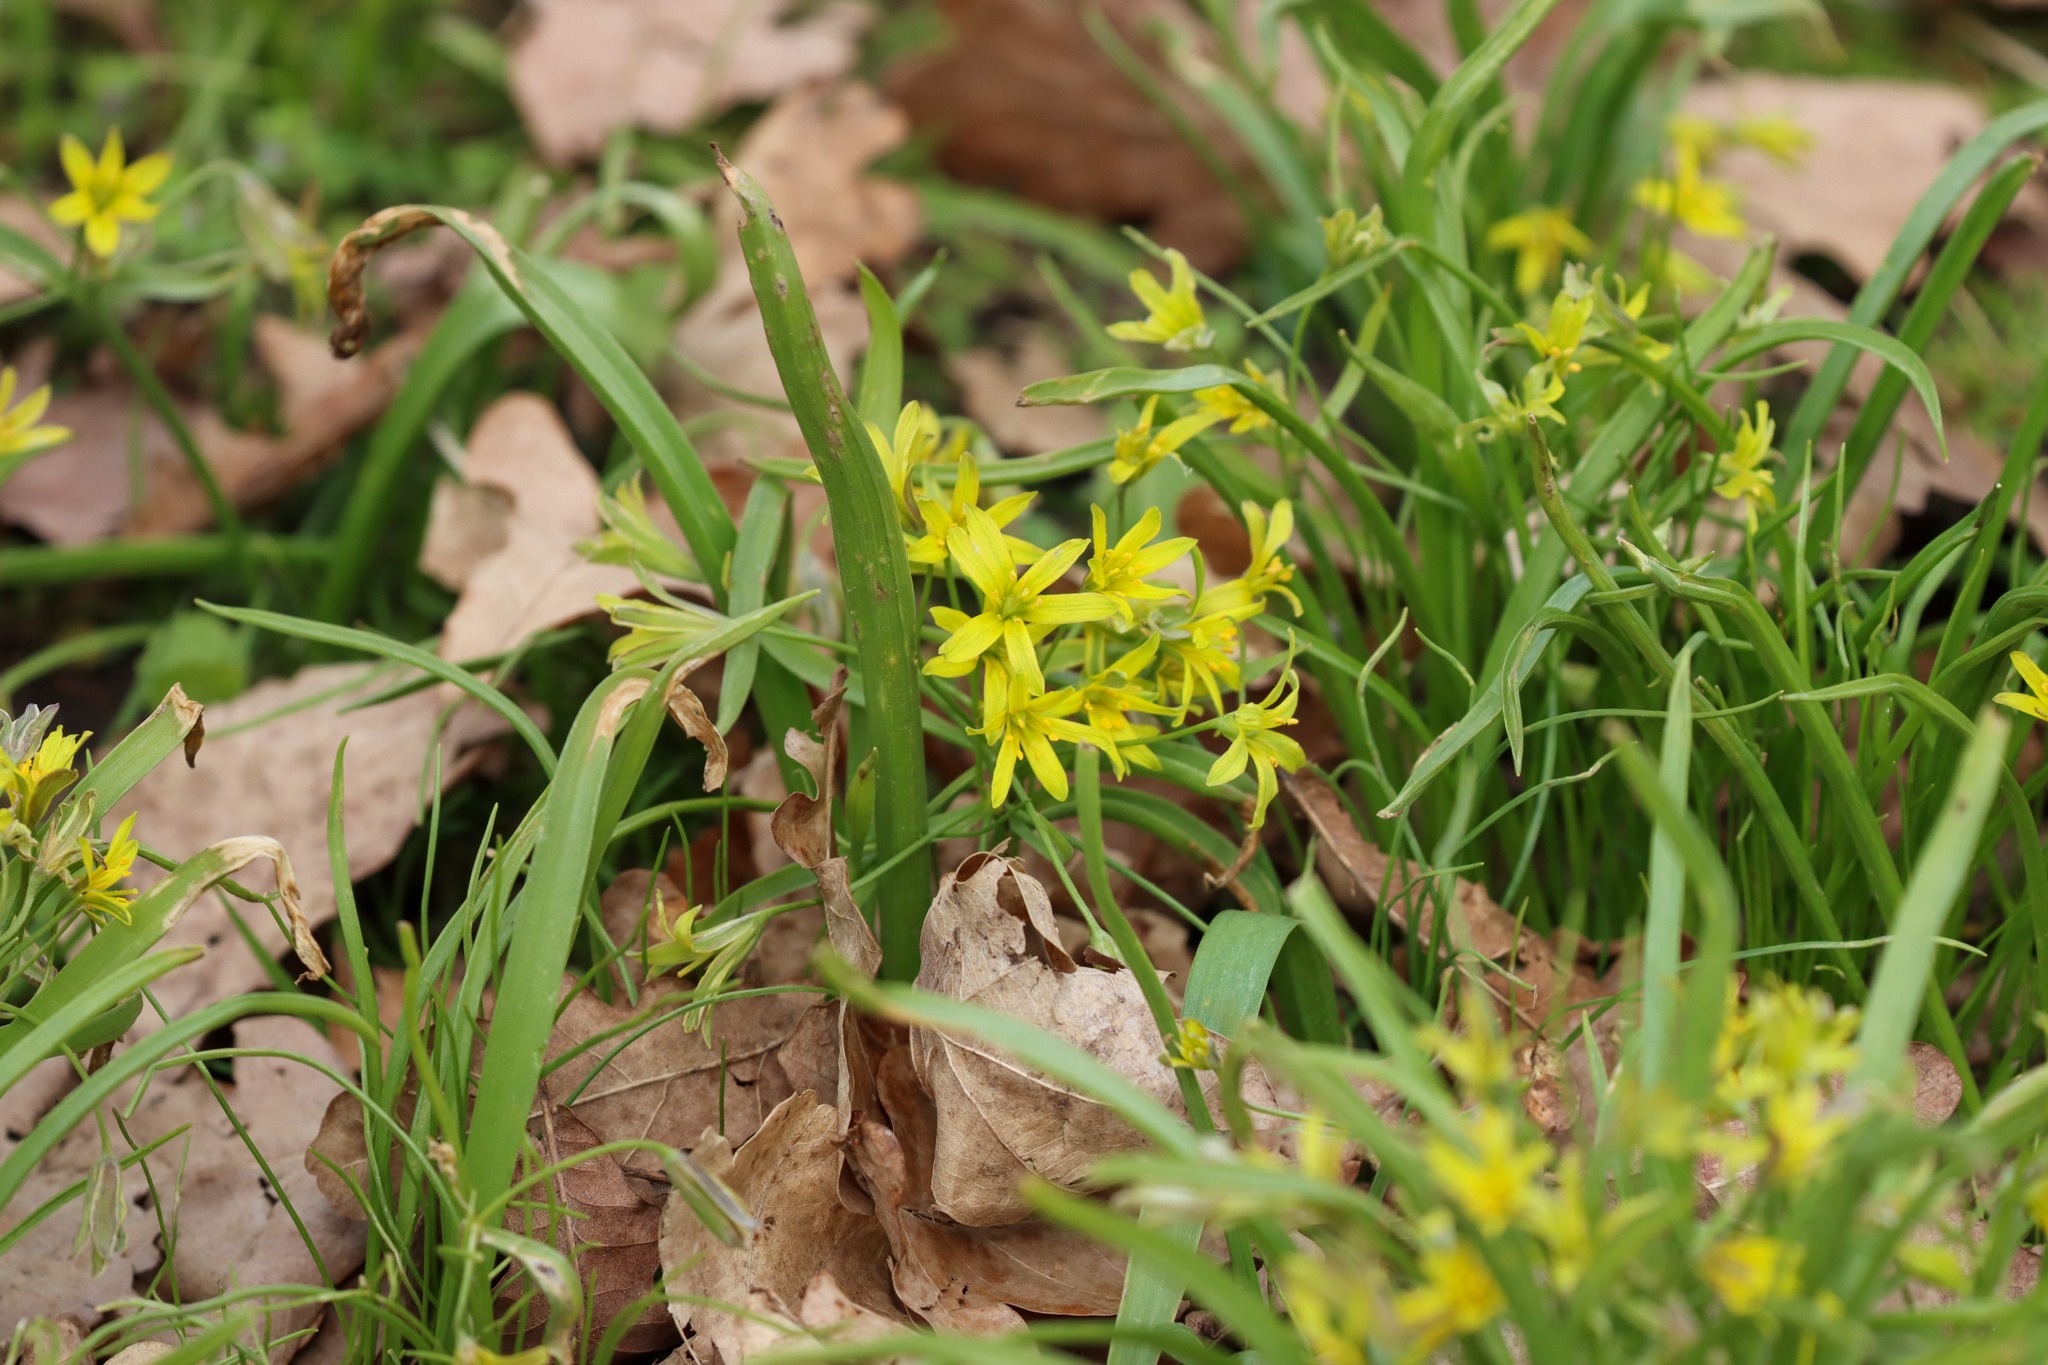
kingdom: Plantae
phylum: Tracheophyta
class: Liliopsida
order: Liliales
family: Liliaceae
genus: Gagea
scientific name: Gagea lutea
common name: Almindelig guldstjerne
